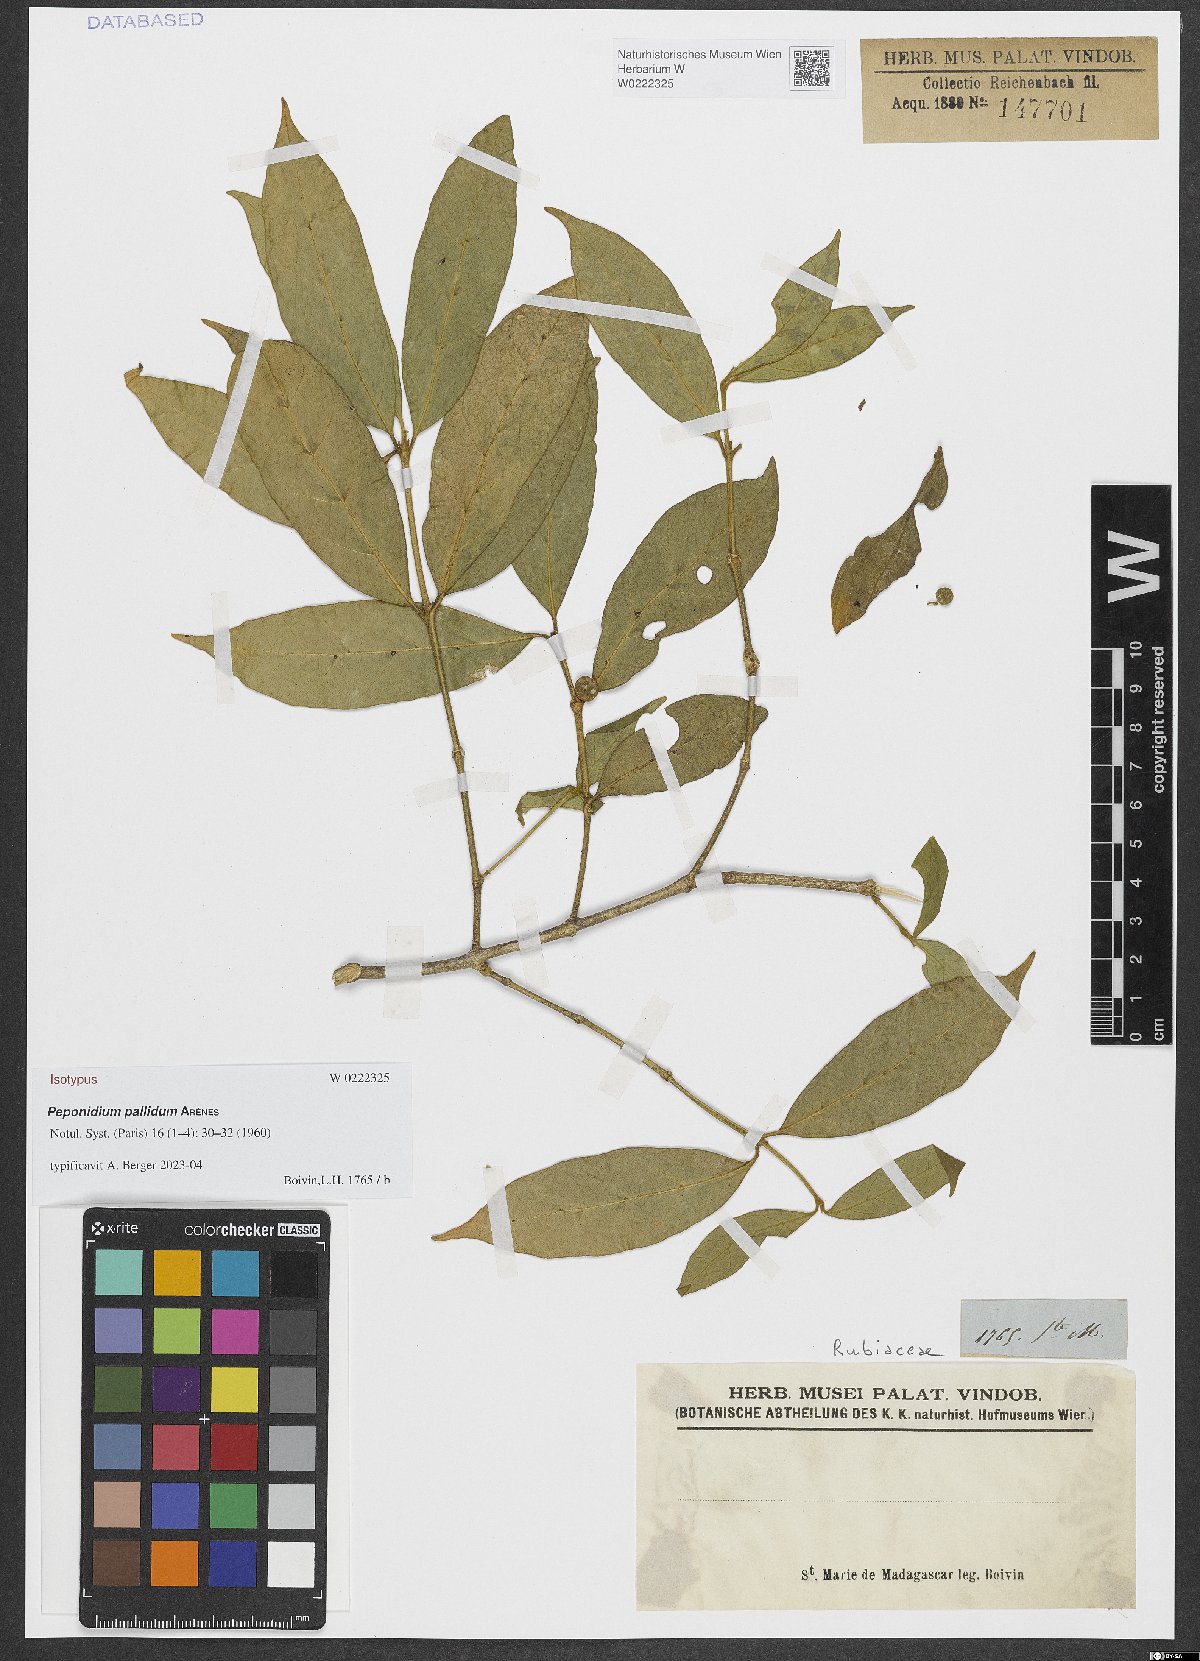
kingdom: Plantae
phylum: Tracheophyta
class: Magnoliopsida
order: Gentianales
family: Rubiaceae
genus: Peponidium
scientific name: Peponidium pallidum
